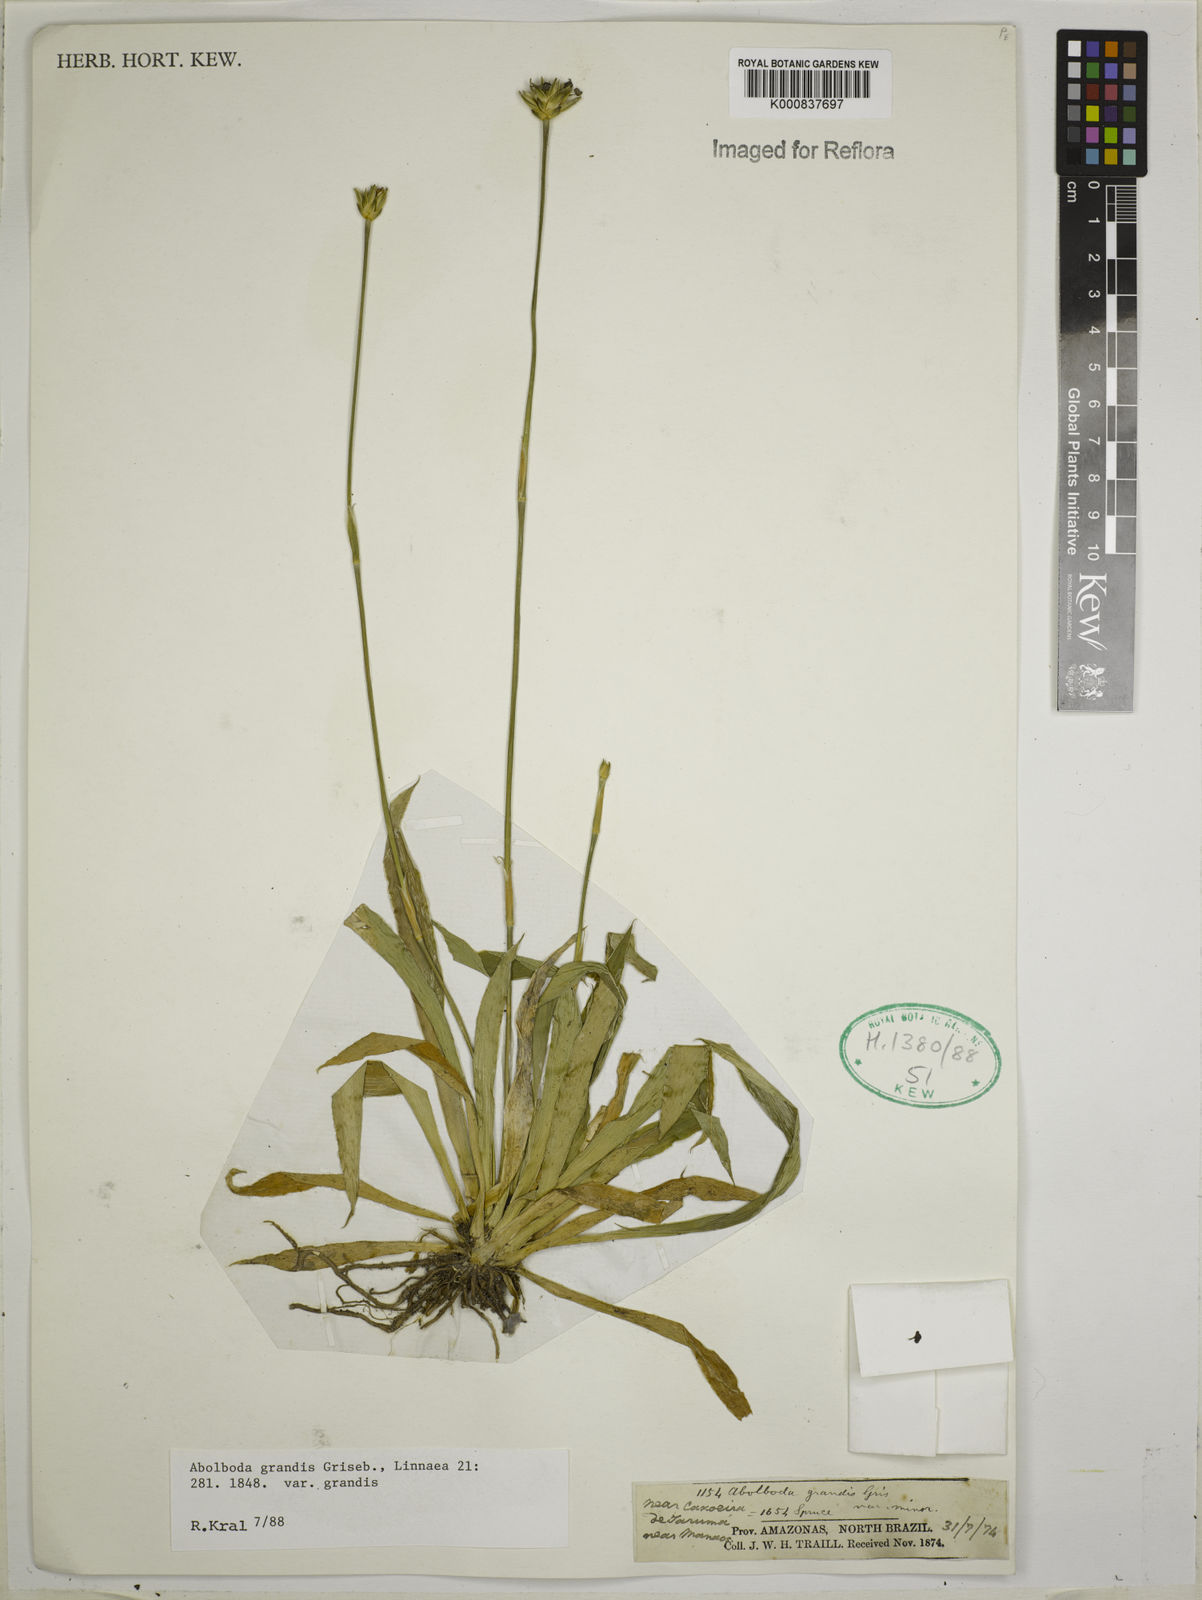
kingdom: Plantae
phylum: Tracheophyta
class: Liliopsida
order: Poales
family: Xyridaceae
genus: Abolboda
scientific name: Abolboda grandis
